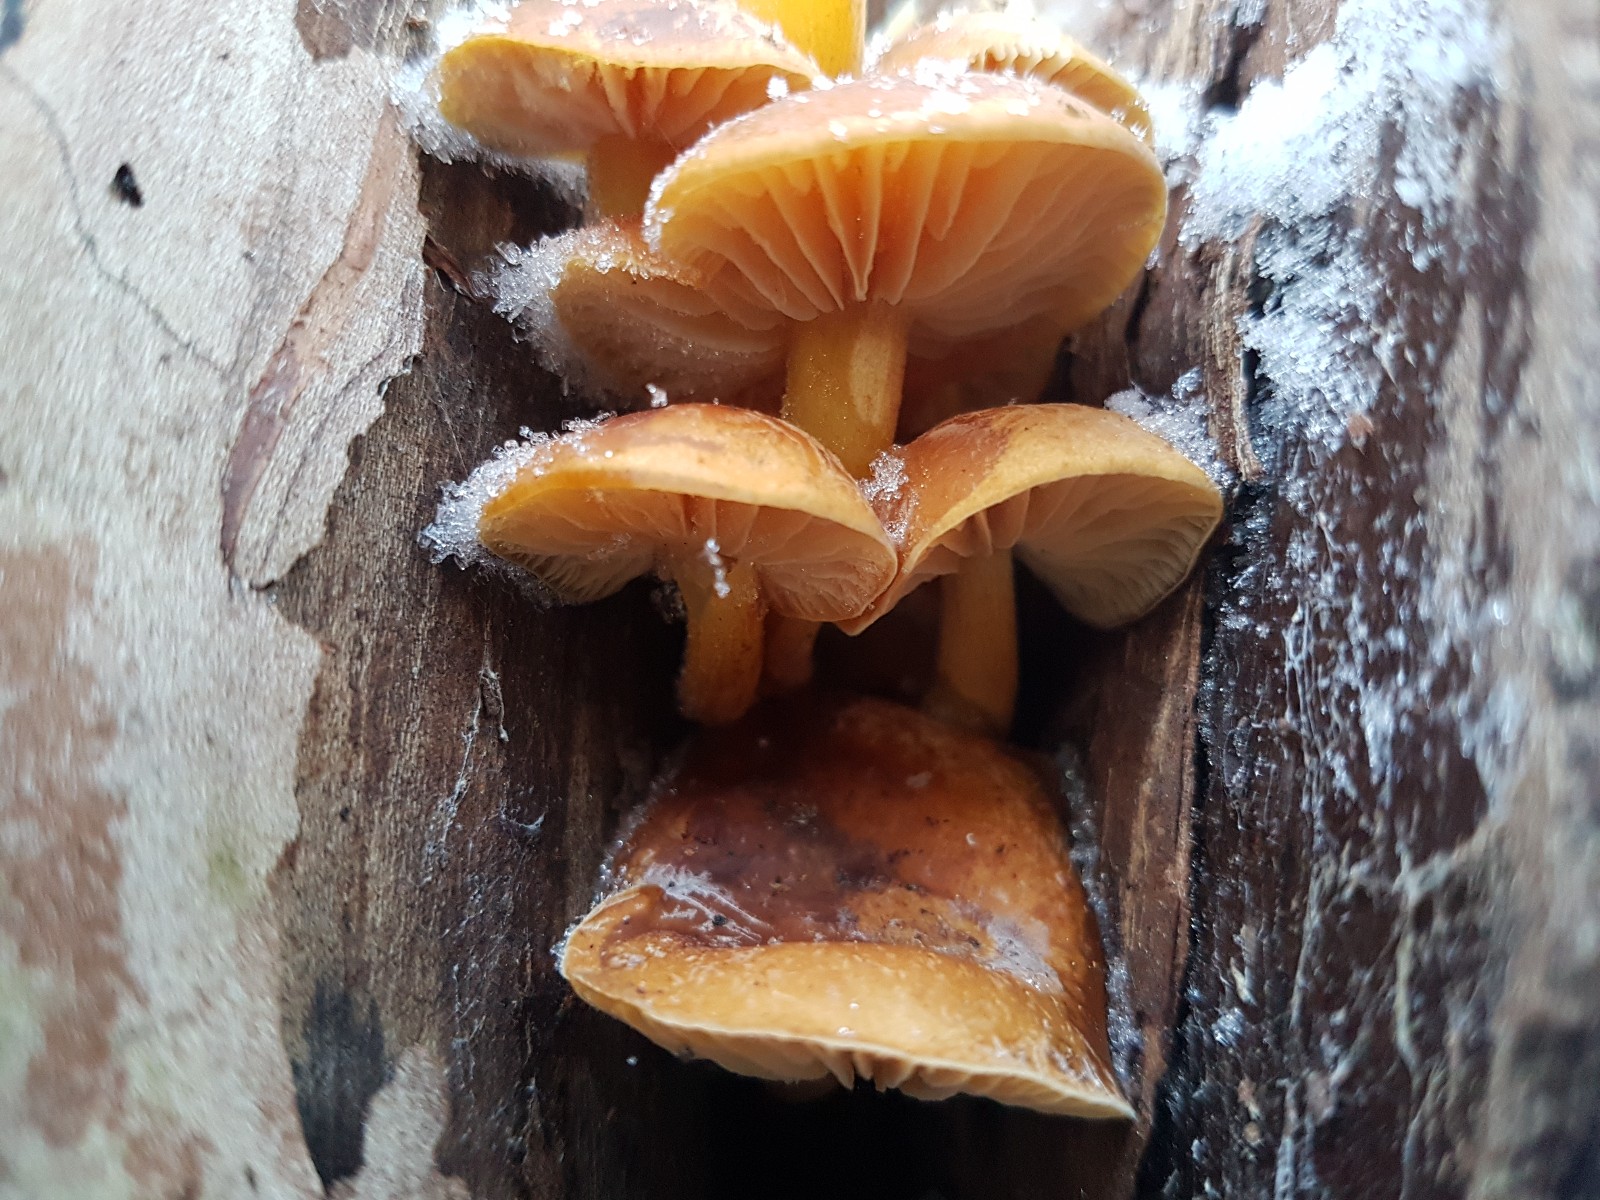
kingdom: Fungi
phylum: Basidiomycota
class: Agaricomycetes
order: Agaricales
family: Physalacriaceae
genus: Flammulina
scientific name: Flammulina
